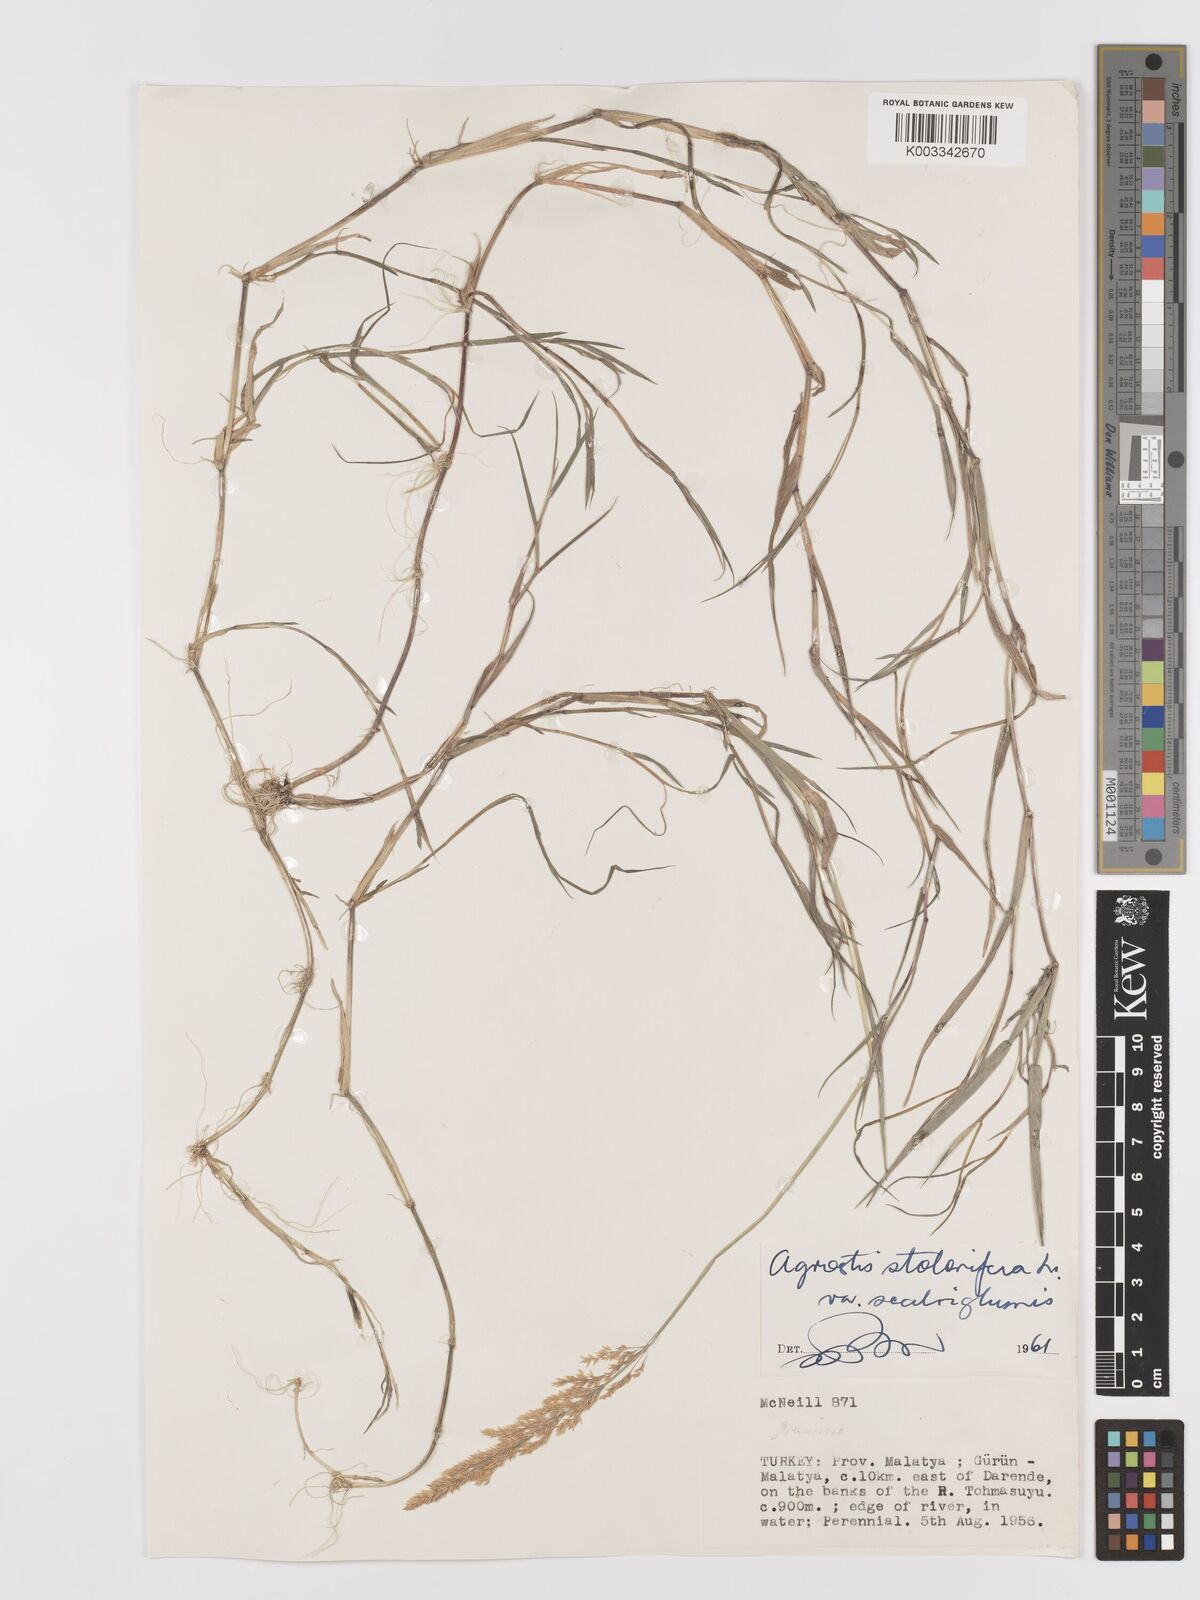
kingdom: Plantae
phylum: Tracheophyta
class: Liliopsida
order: Poales
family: Poaceae
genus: Agrostis
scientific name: Agrostis gigantea
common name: Black bent
